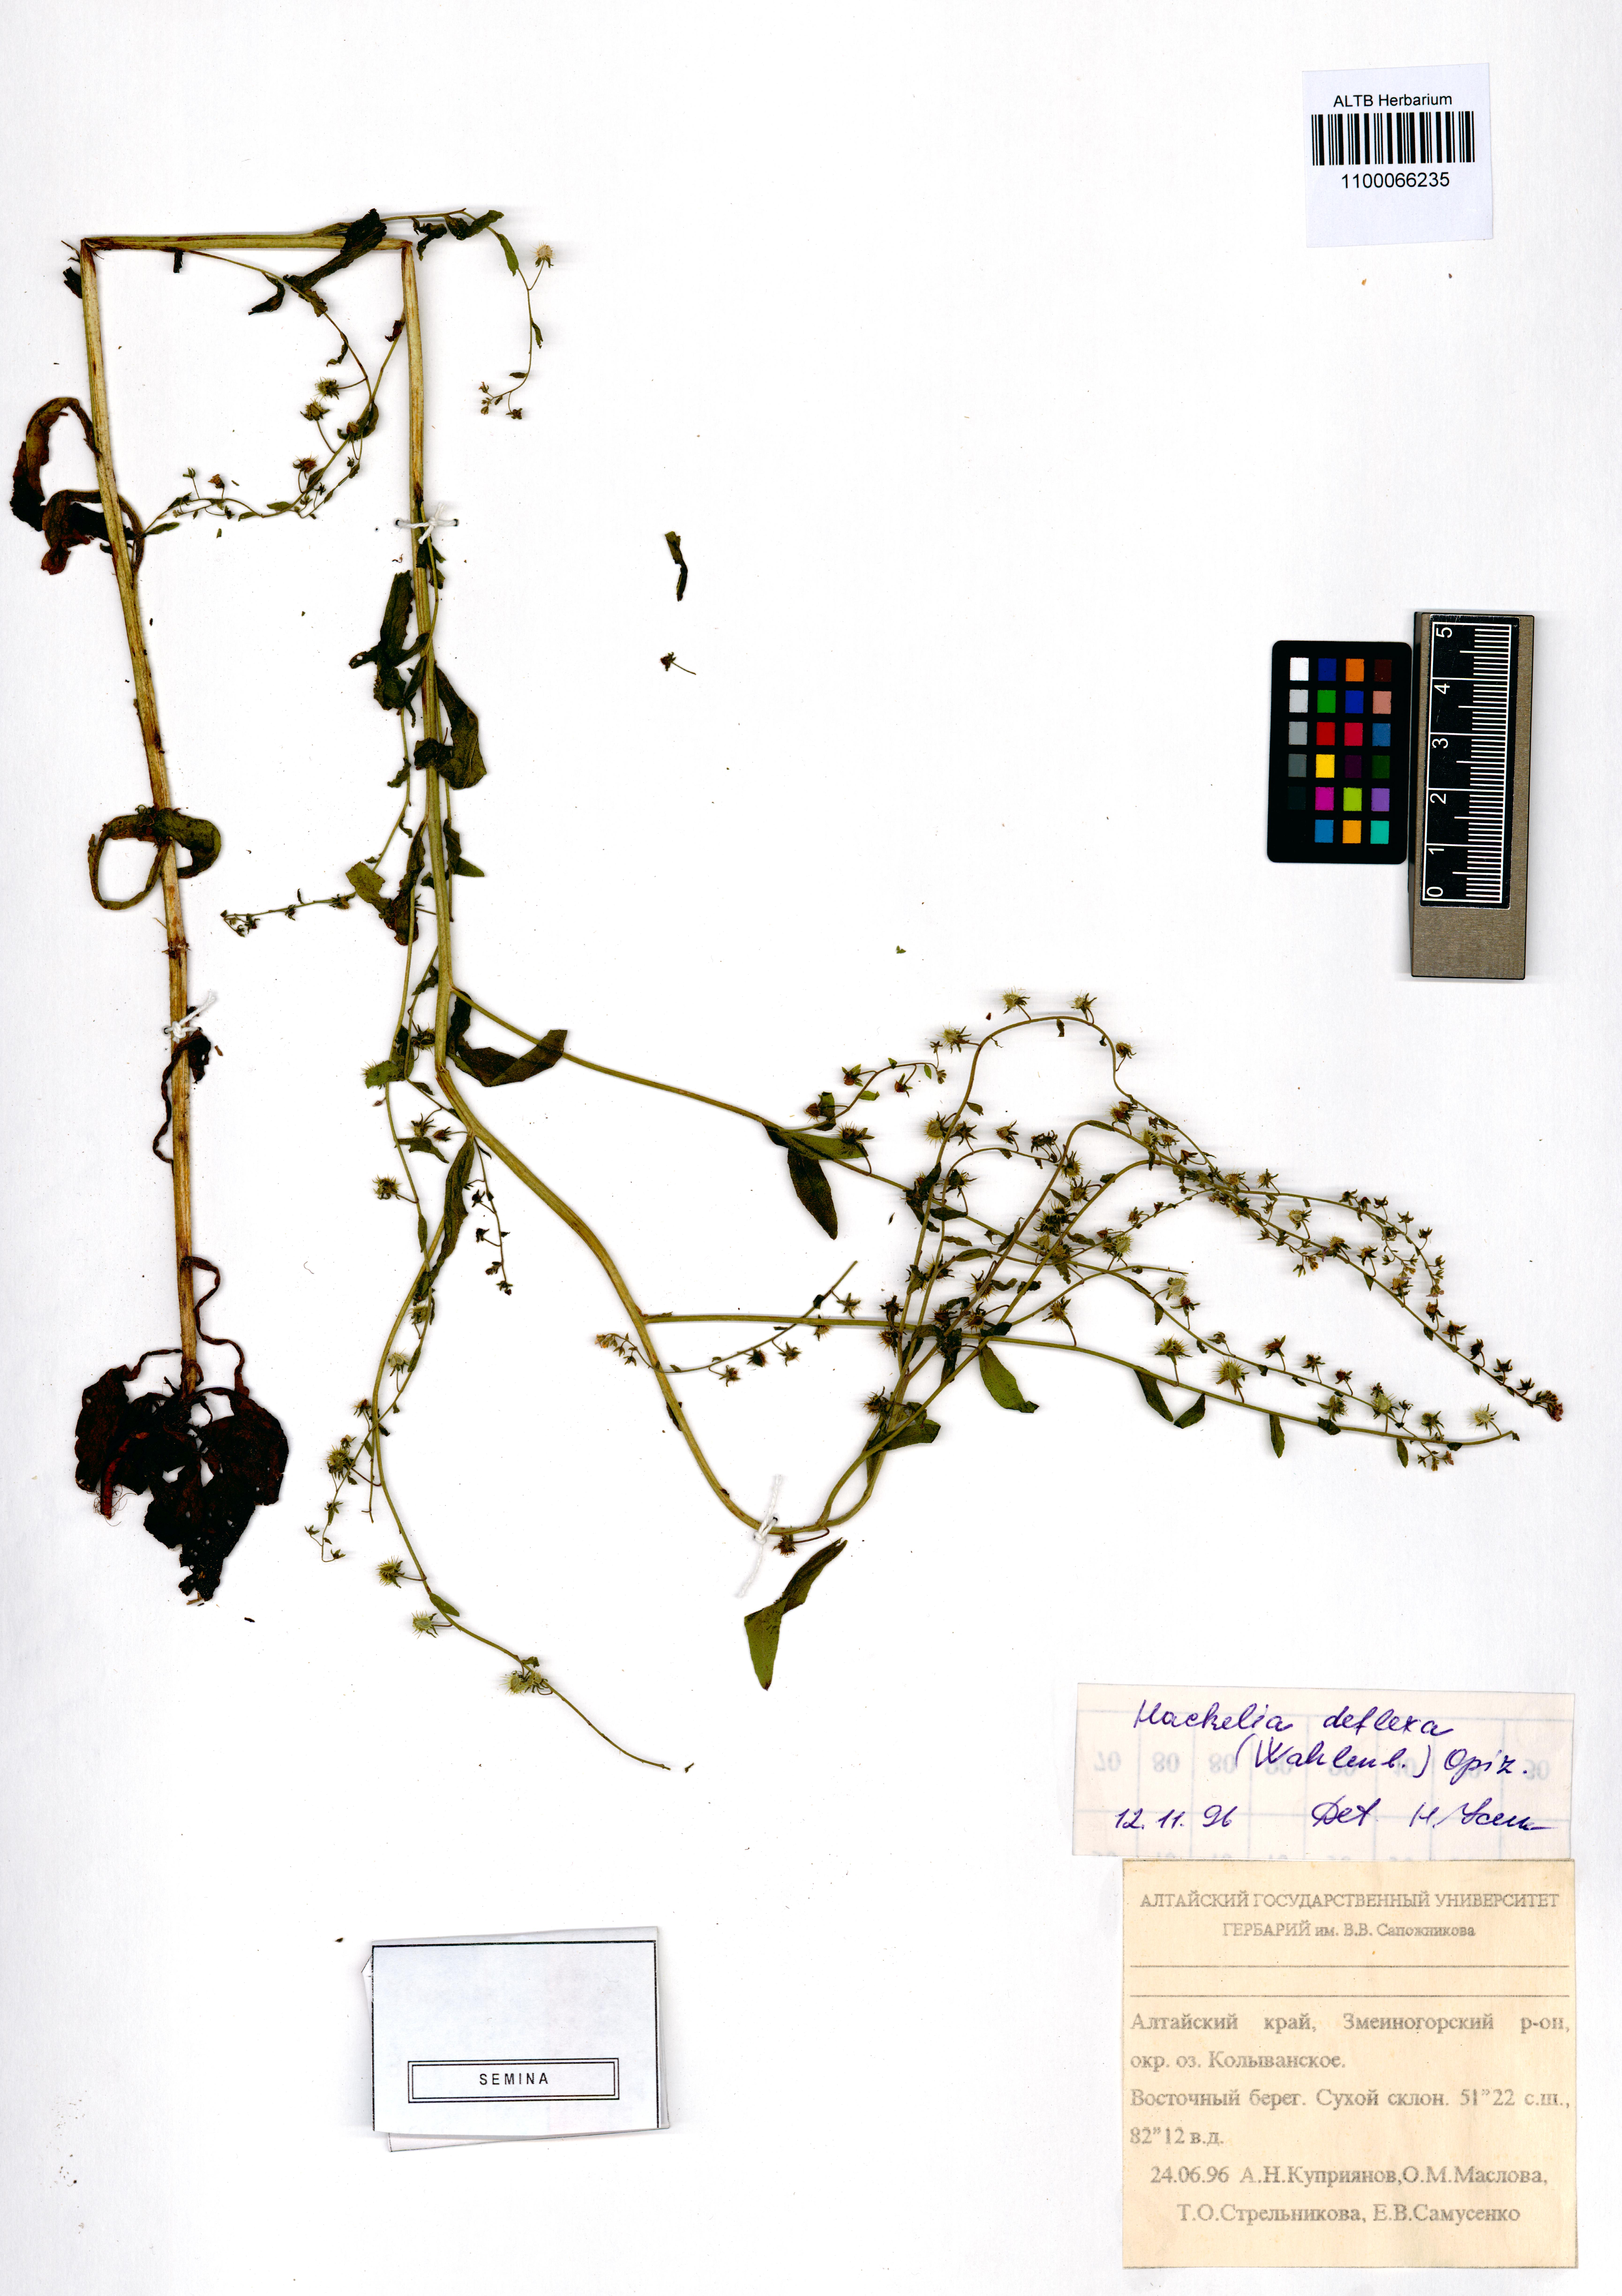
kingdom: Plantae
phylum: Tracheophyta
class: Magnoliopsida
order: Boraginales
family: Boraginaceae
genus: Hackelia
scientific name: Hackelia deflexa
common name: Nodding stickseed
